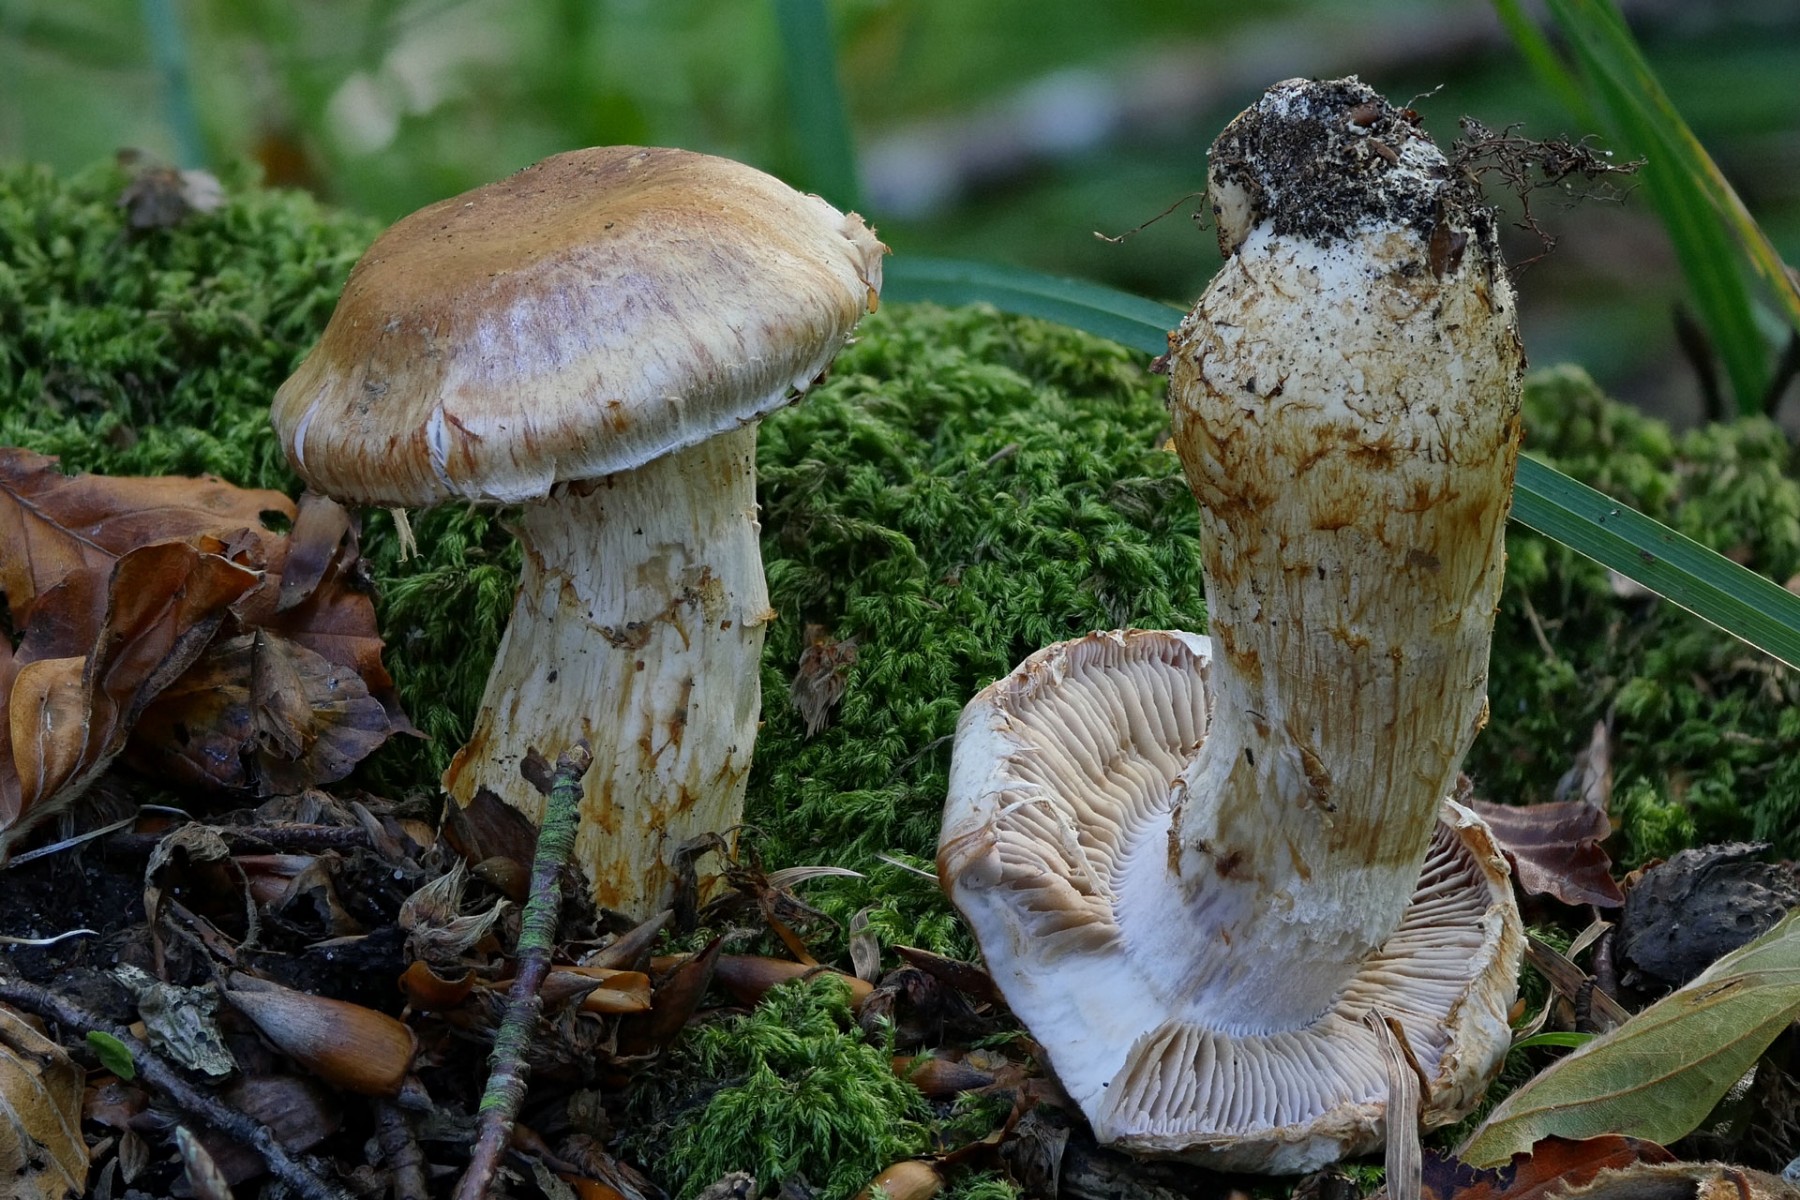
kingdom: Fungi
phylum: Basidiomycota
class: Agaricomycetes
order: Agaricales
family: Cortinariaceae
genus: Phlegmacium
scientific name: Phlegmacium vulpinum
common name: ringbæltet slørhat
